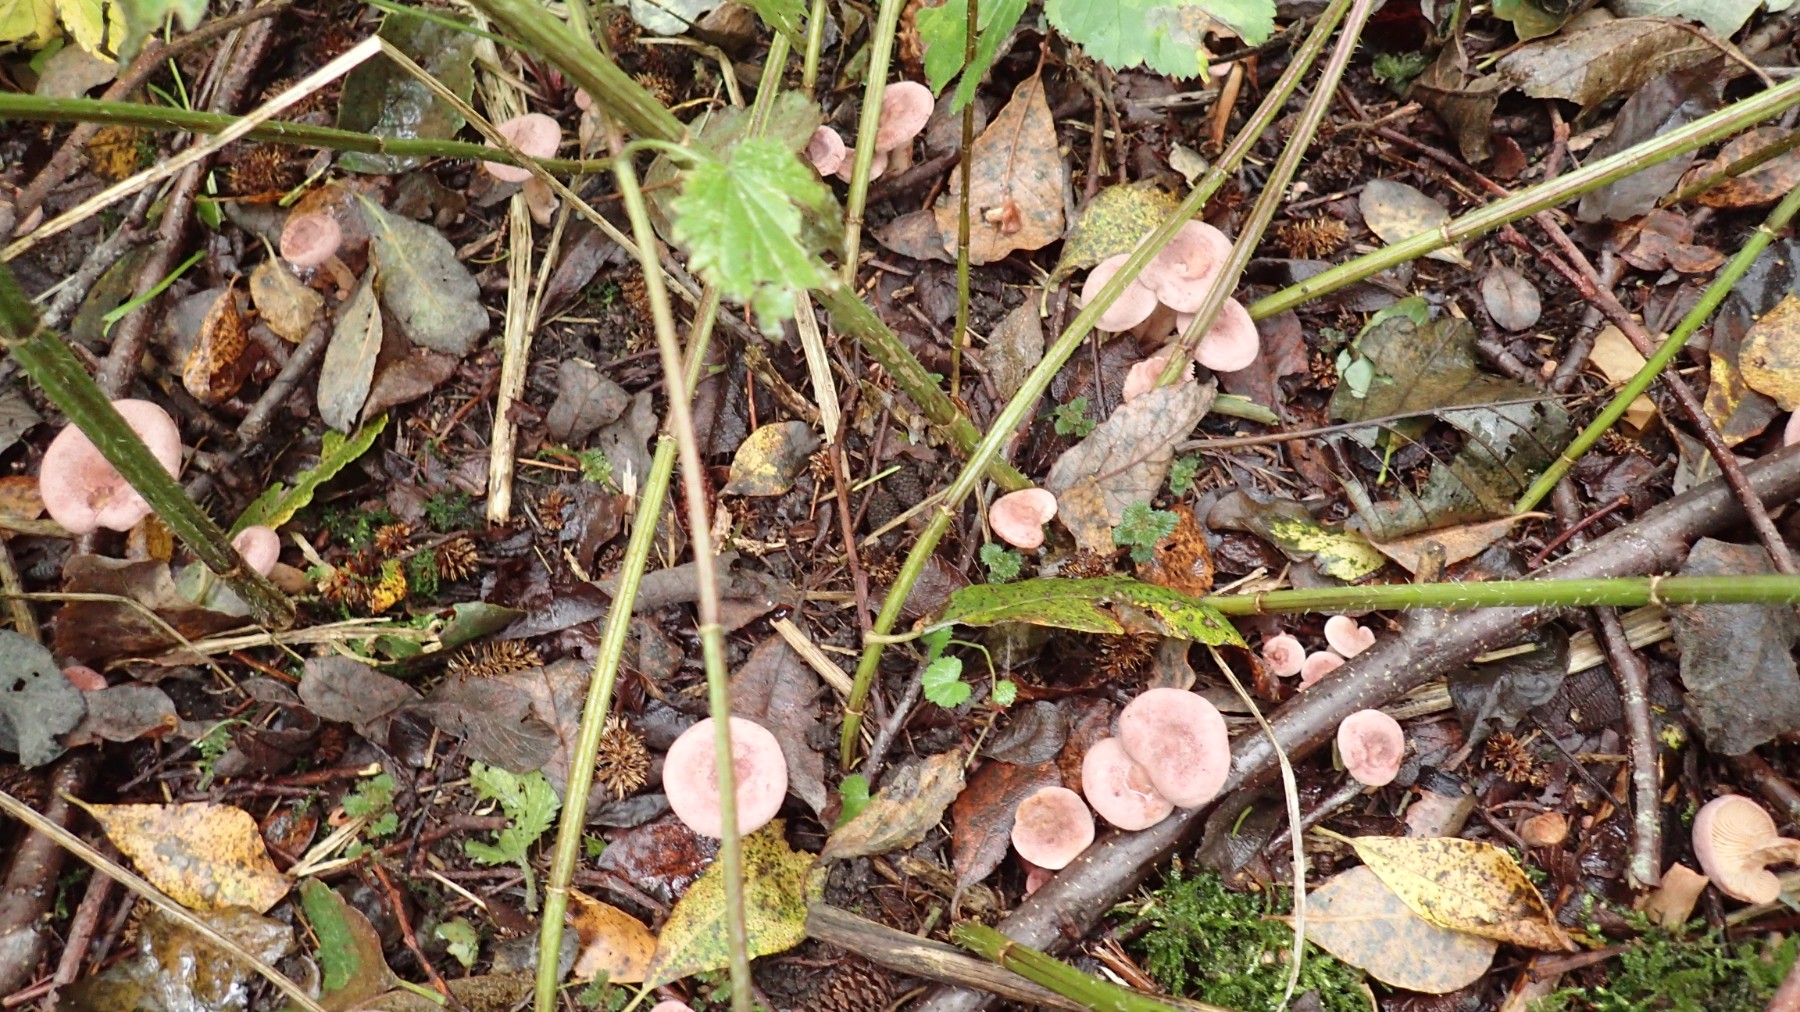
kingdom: Fungi
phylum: Basidiomycota
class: Agaricomycetes
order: Russulales
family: Russulaceae
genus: Lactarius
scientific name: Lactarius lilacinus
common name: lilla mælkehat
